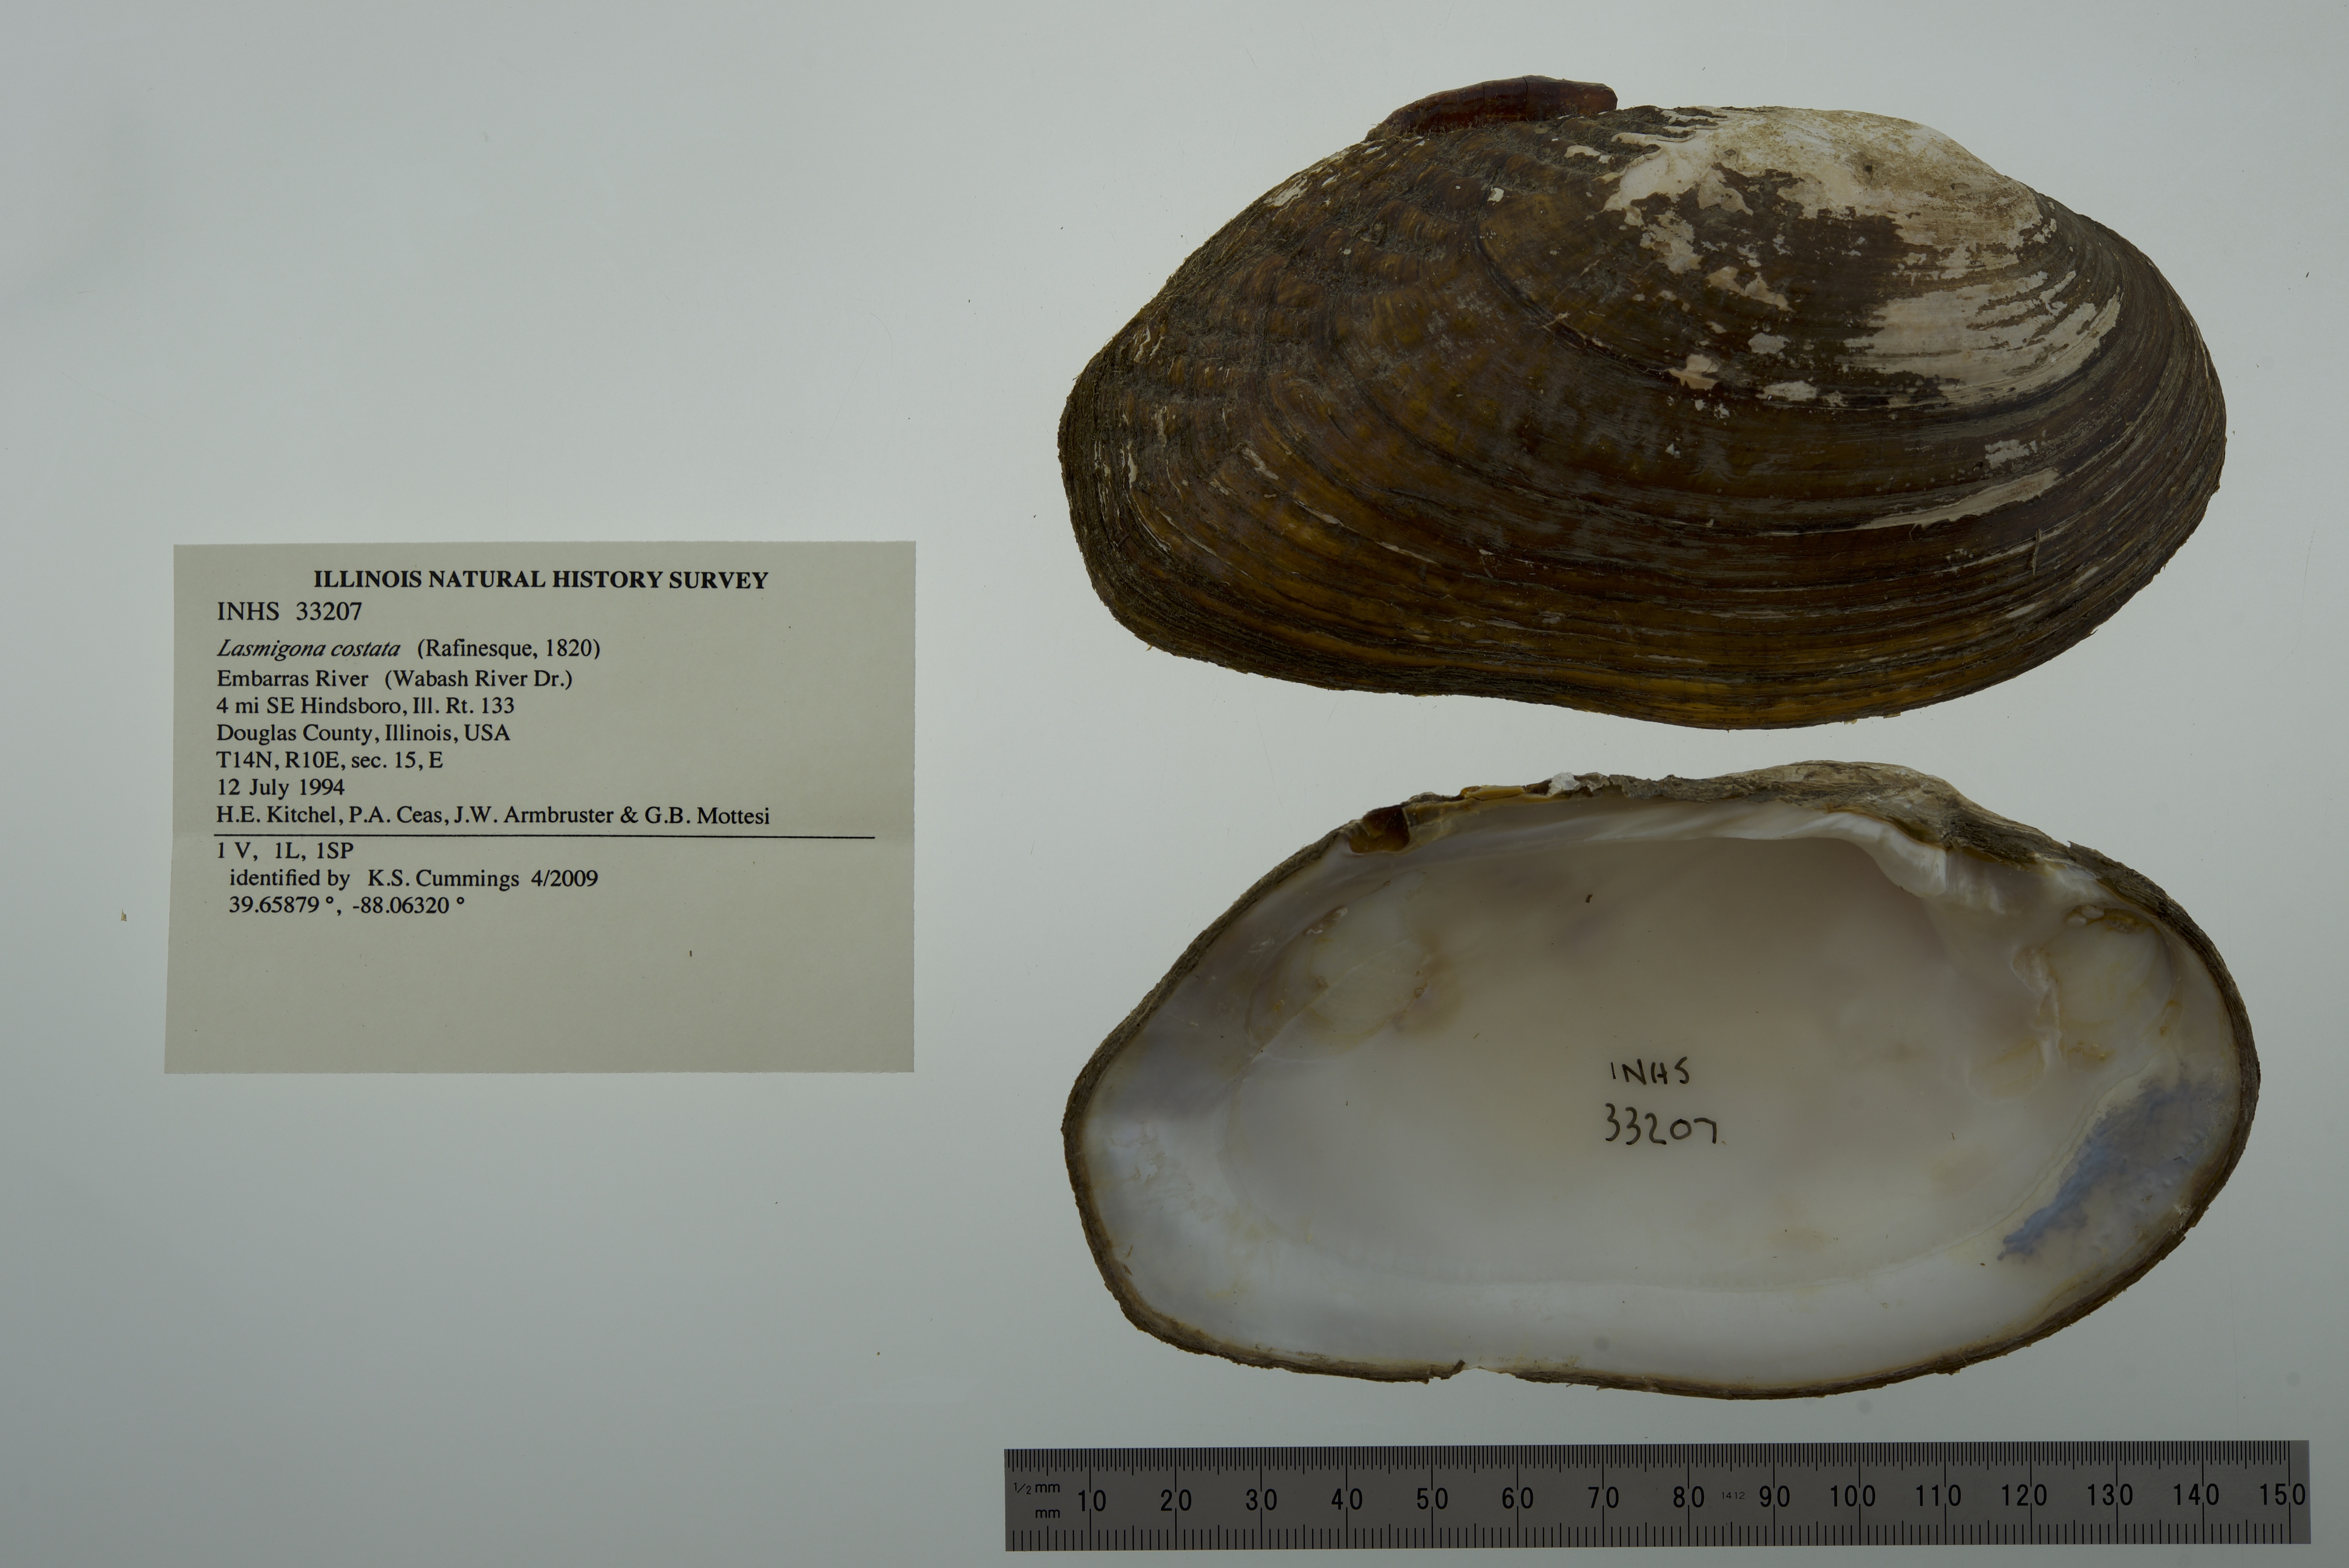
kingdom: Animalia
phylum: Mollusca
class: Bivalvia
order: Unionida
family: Unionidae
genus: Lasmigona
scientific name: Lasmigona costata
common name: Flutedshell
